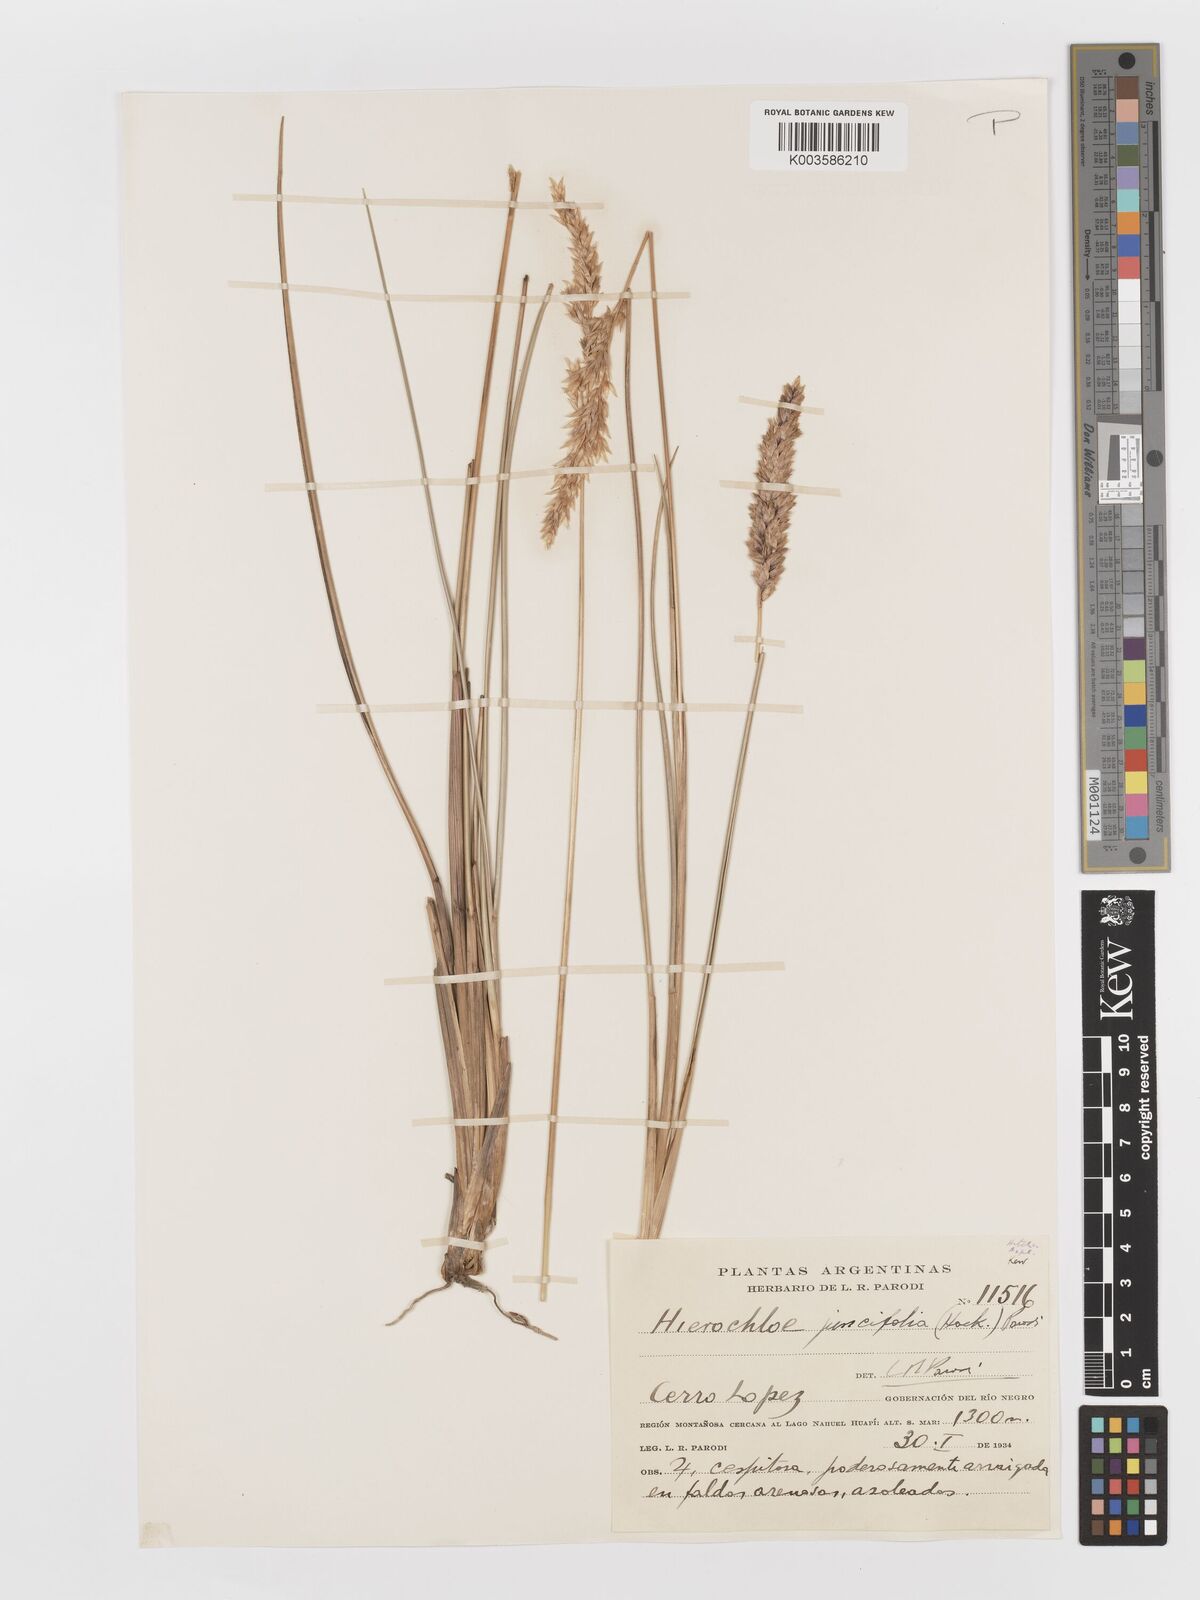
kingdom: Plantae
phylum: Tracheophyta
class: Liliopsida
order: Poales
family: Poaceae
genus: Anthoxanthum
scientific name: Anthoxanthum juncifolium
